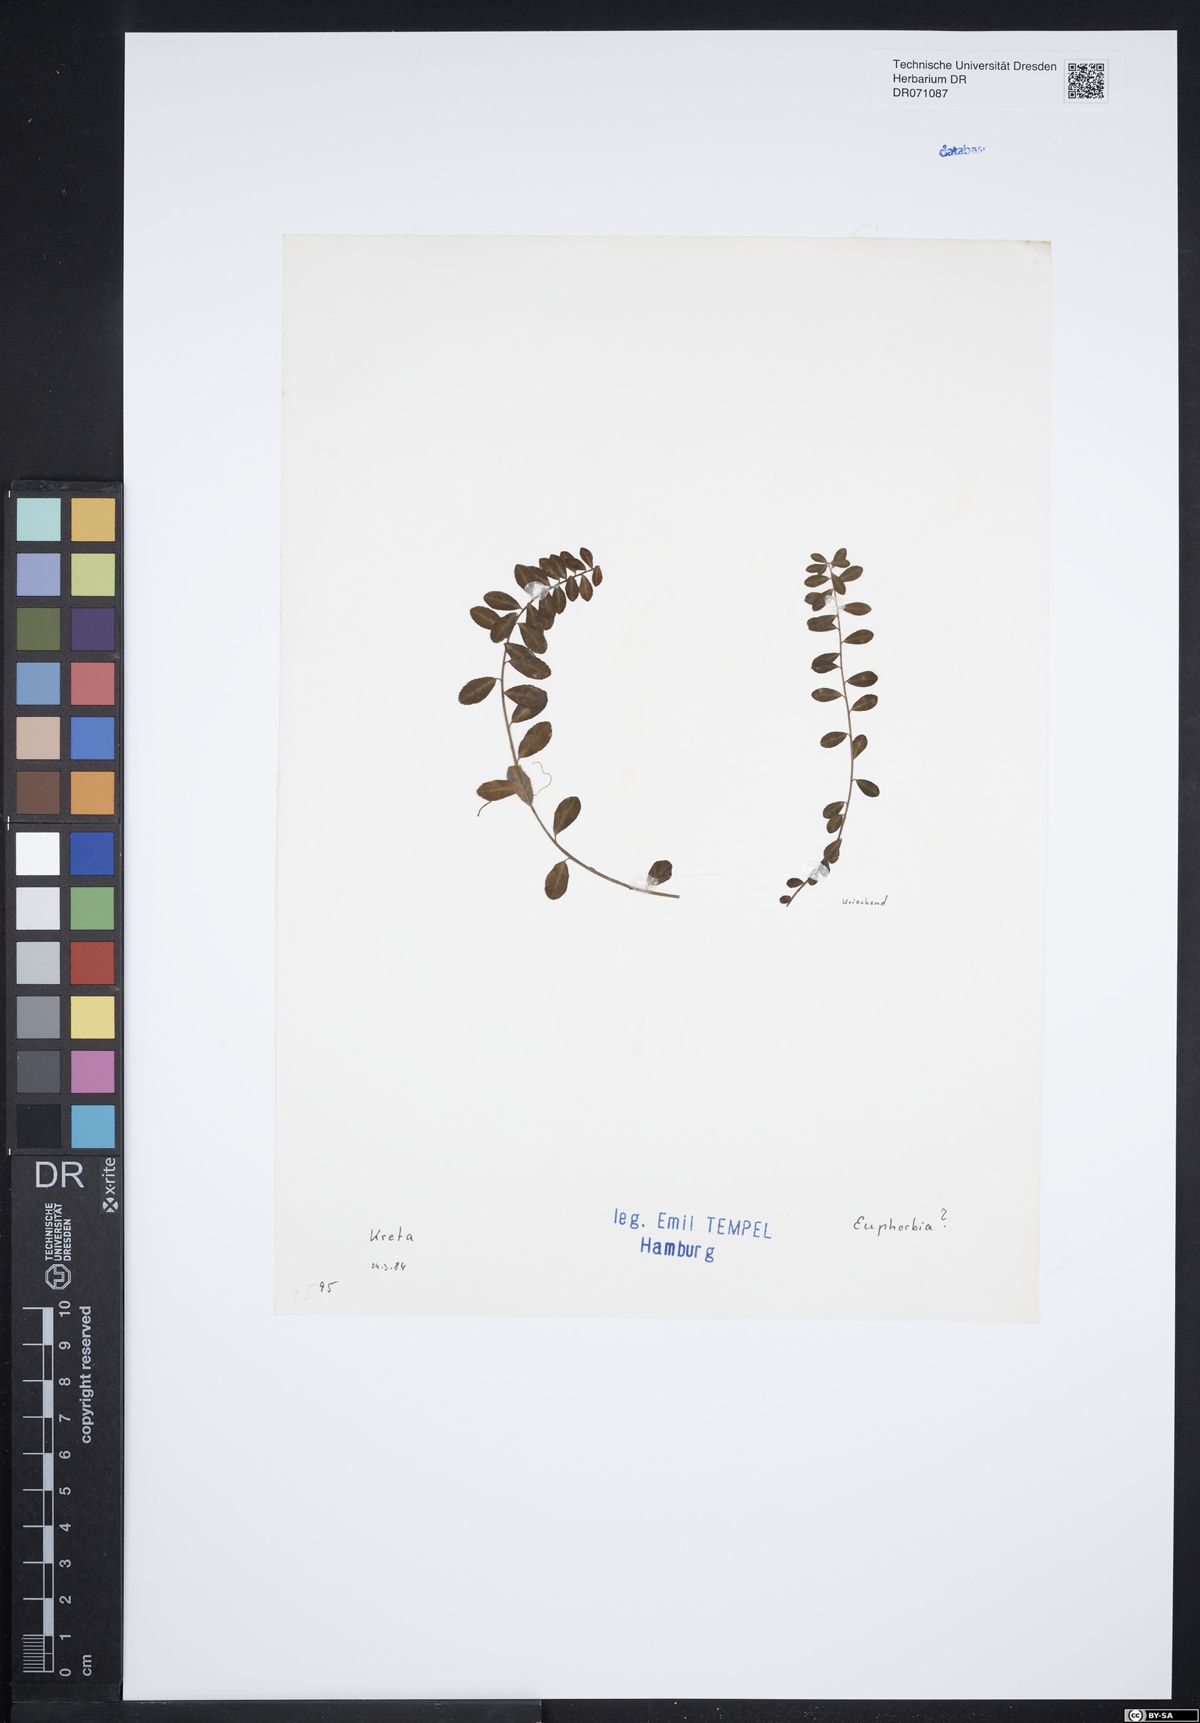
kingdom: Plantae
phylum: Tracheophyta
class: Magnoliopsida
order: Malpighiales
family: Euphorbiaceae
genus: Euphorbia
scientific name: Euphorbia
